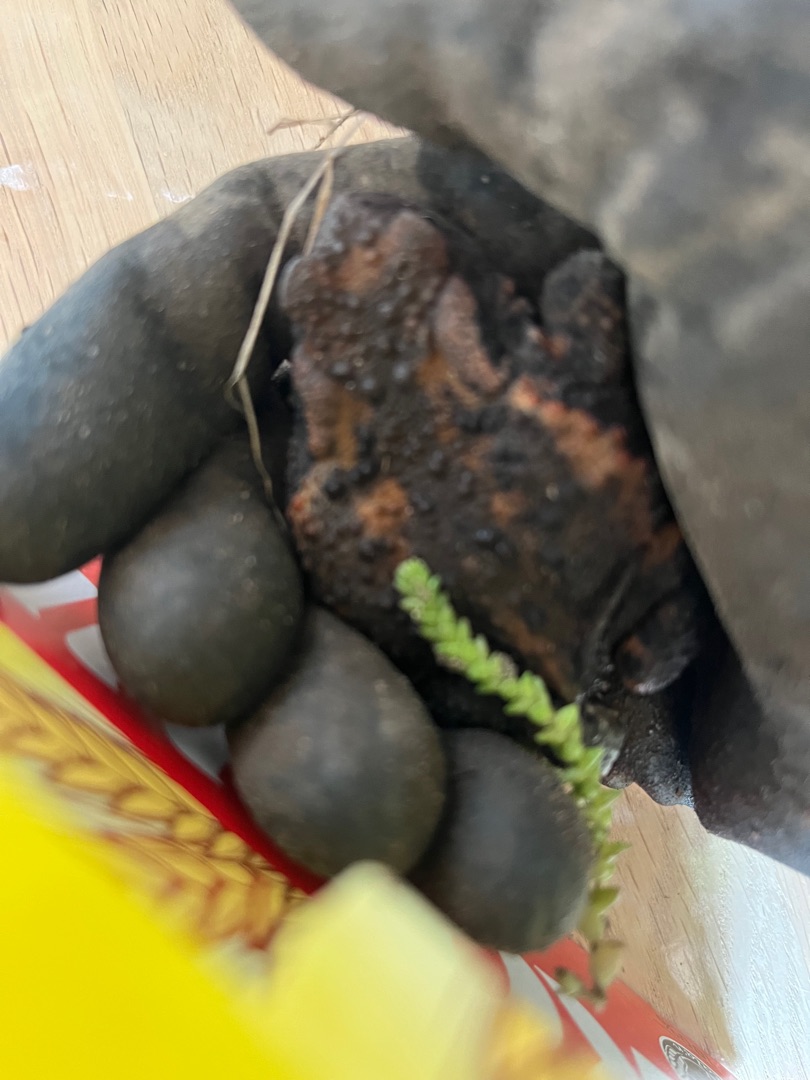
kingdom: Animalia
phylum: Chordata
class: Amphibia
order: Anura
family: Bufonidae
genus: Bufo
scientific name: Bufo bufo
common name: Skrubtudse
